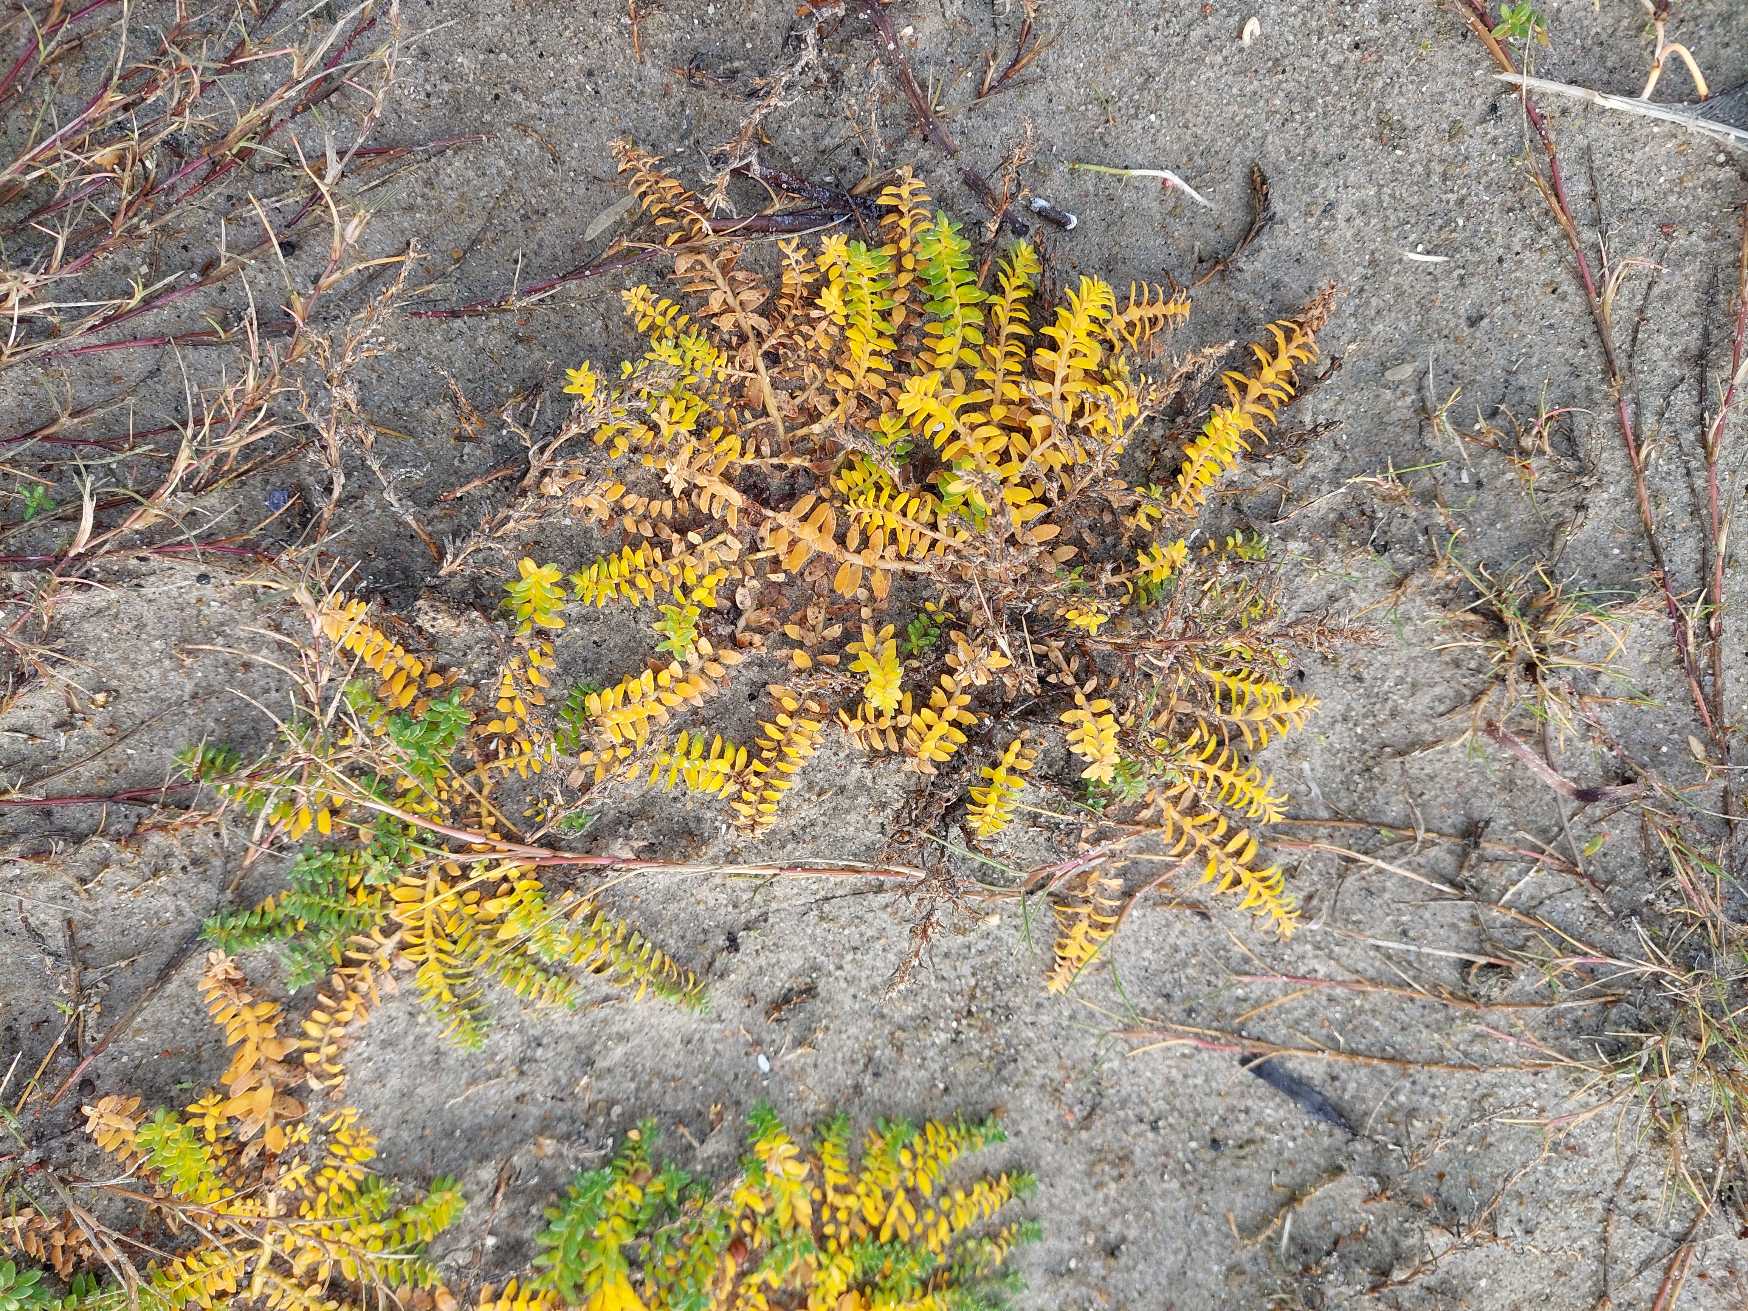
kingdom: Plantae
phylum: Tracheophyta
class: Magnoliopsida
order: Caryophyllales
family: Caryophyllaceae
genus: Honckenya
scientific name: Honckenya peploides
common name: Strandarve
